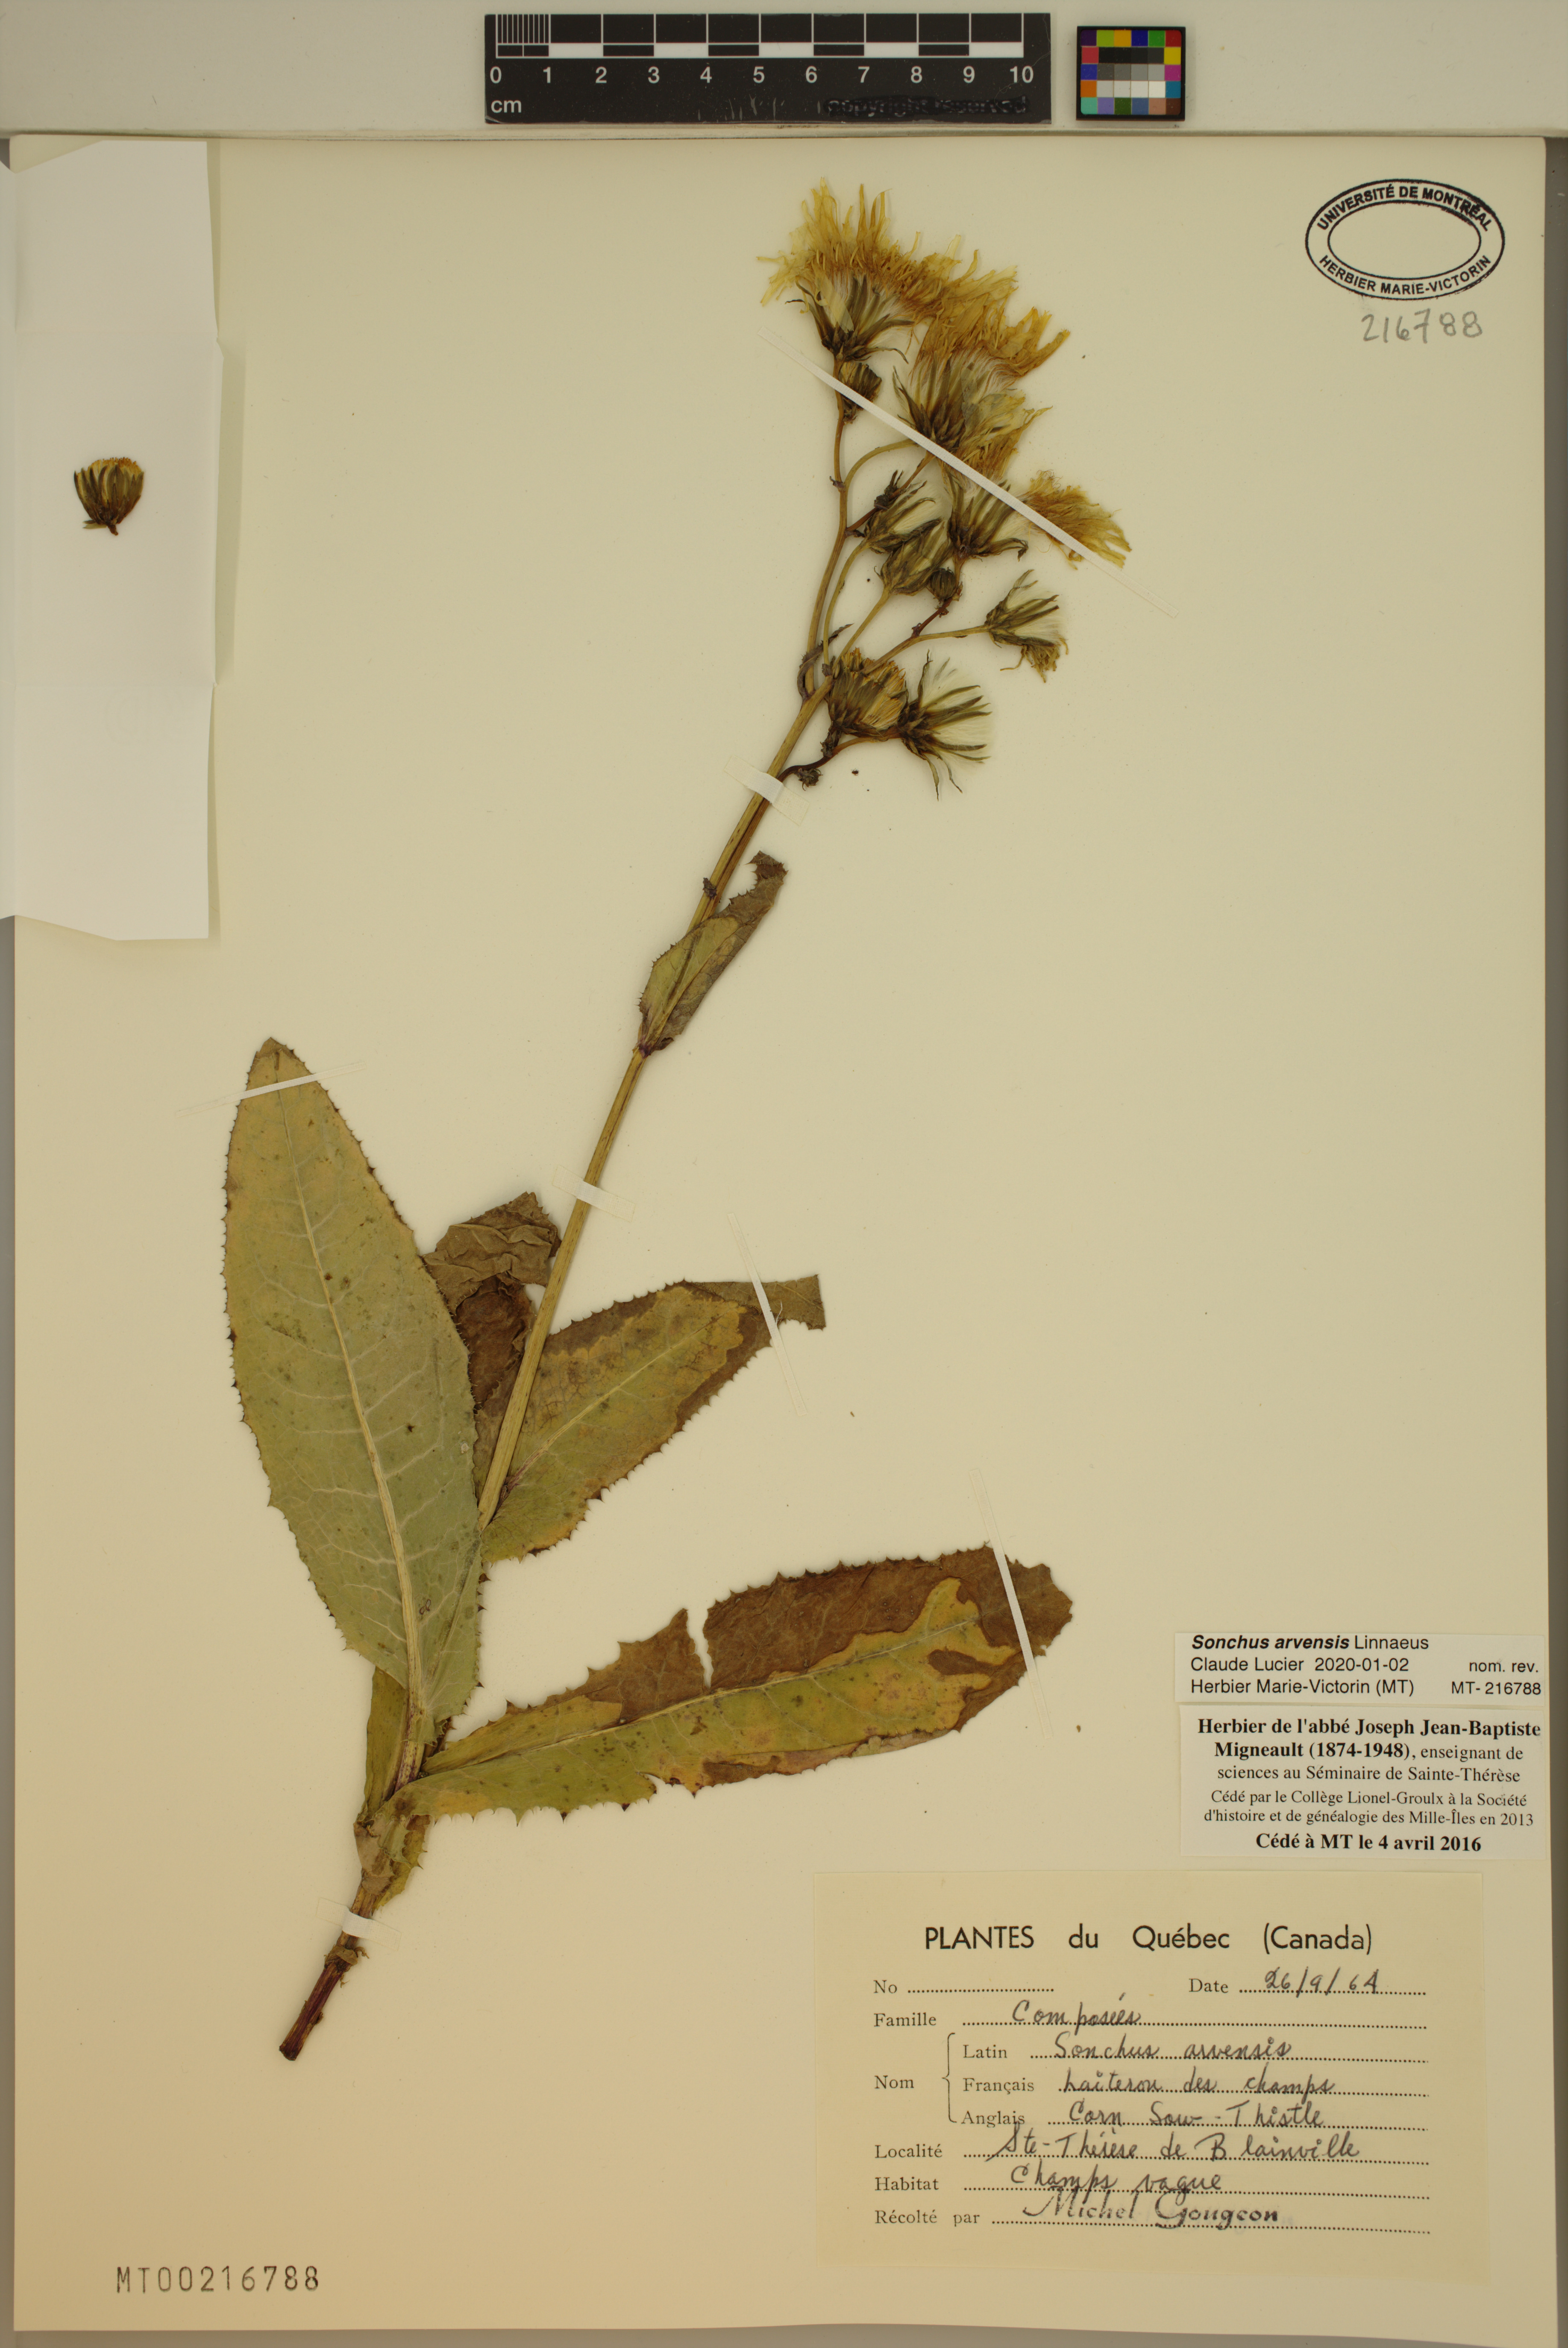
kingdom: Plantae
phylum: Tracheophyta
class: Magnoliopsida
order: Asterales
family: Asteraceae
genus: Sonchus
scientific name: Sonchus arvensis
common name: Perennial sow-thistle
